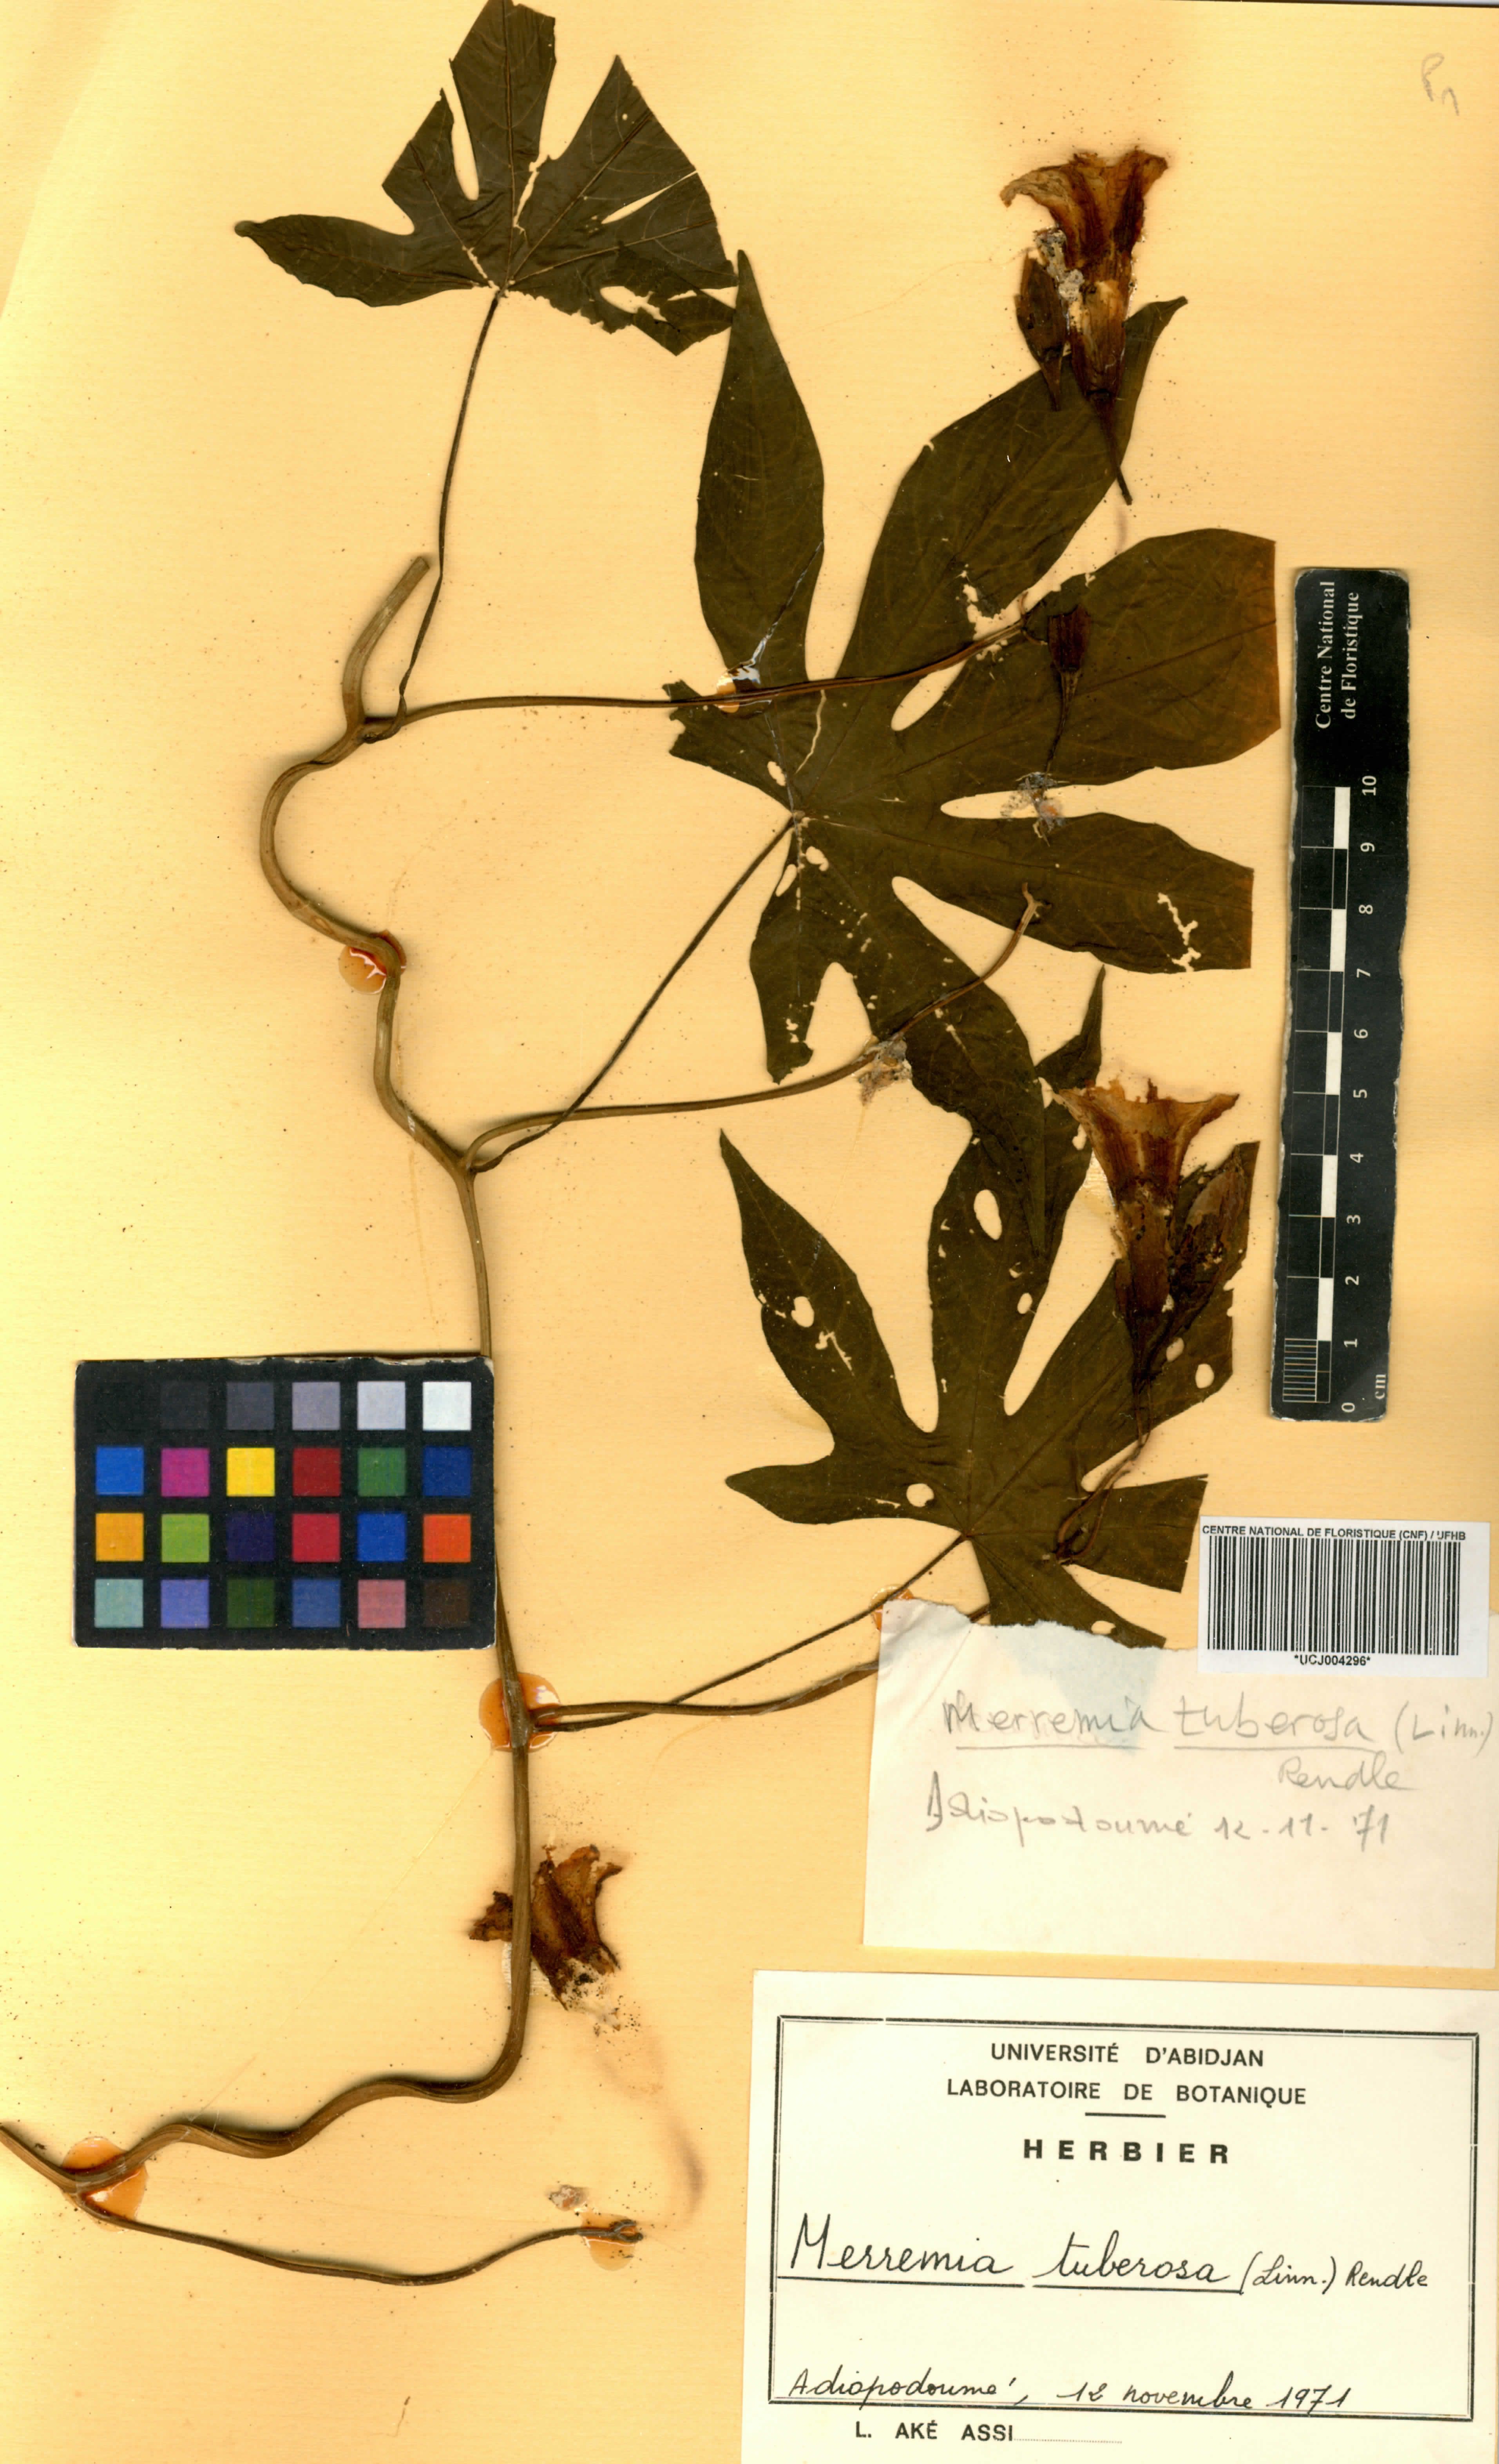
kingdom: Plantae
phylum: Tracheophyta
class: Magnoliopsida
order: Solanales
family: Convolvulaceae
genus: Distimake
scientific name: Distimake tuberosus
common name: Spanish arborvine
